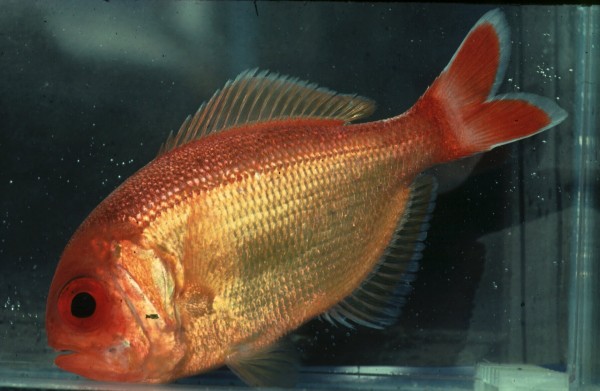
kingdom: Animalia
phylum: Chordata
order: Beryciformes
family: Berycidae
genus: Centroberyx
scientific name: Centroberyx spinosus
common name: Short alfonsino
